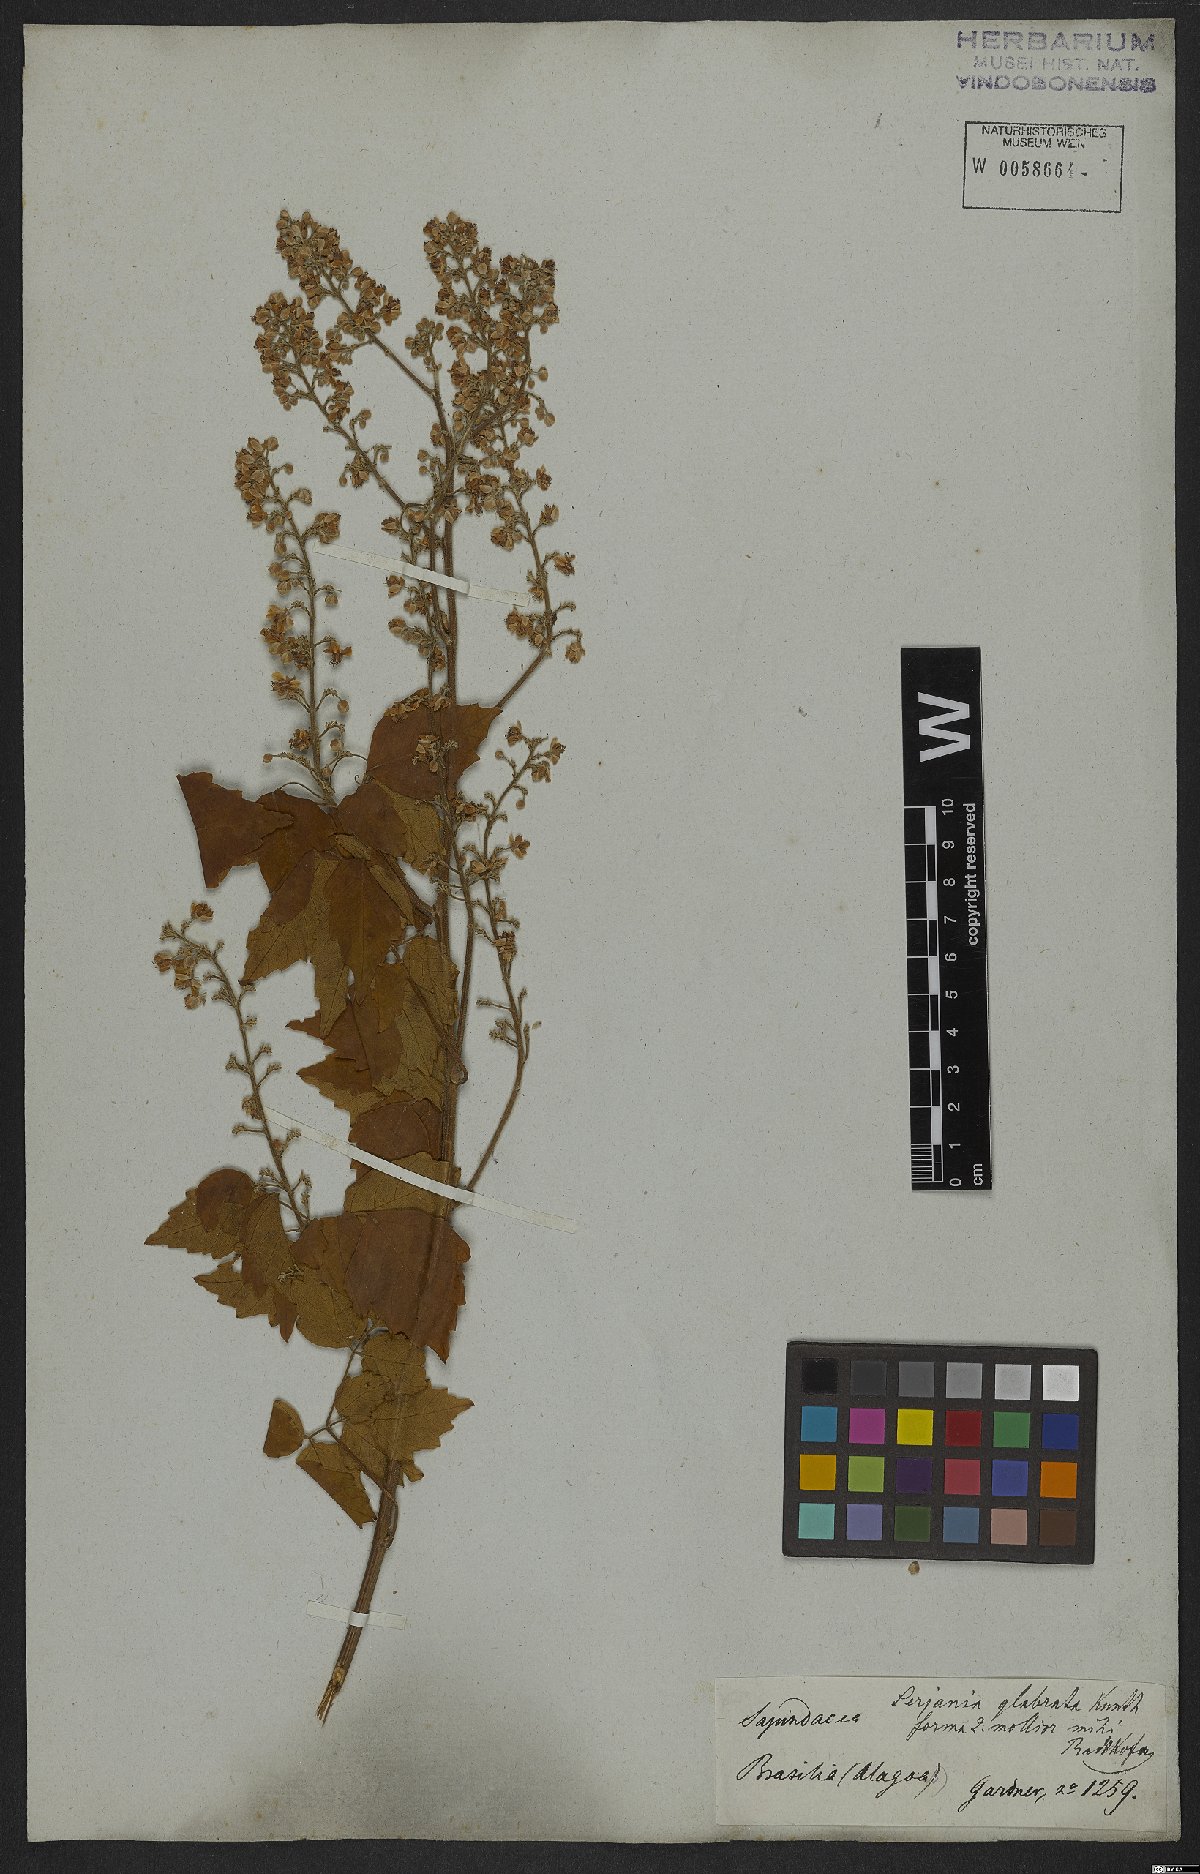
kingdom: Plantae
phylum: Tracheophyta
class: Magnoliopsida
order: Sapindales
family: Sapindaceae
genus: Serjania
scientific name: Serjania glabrata
